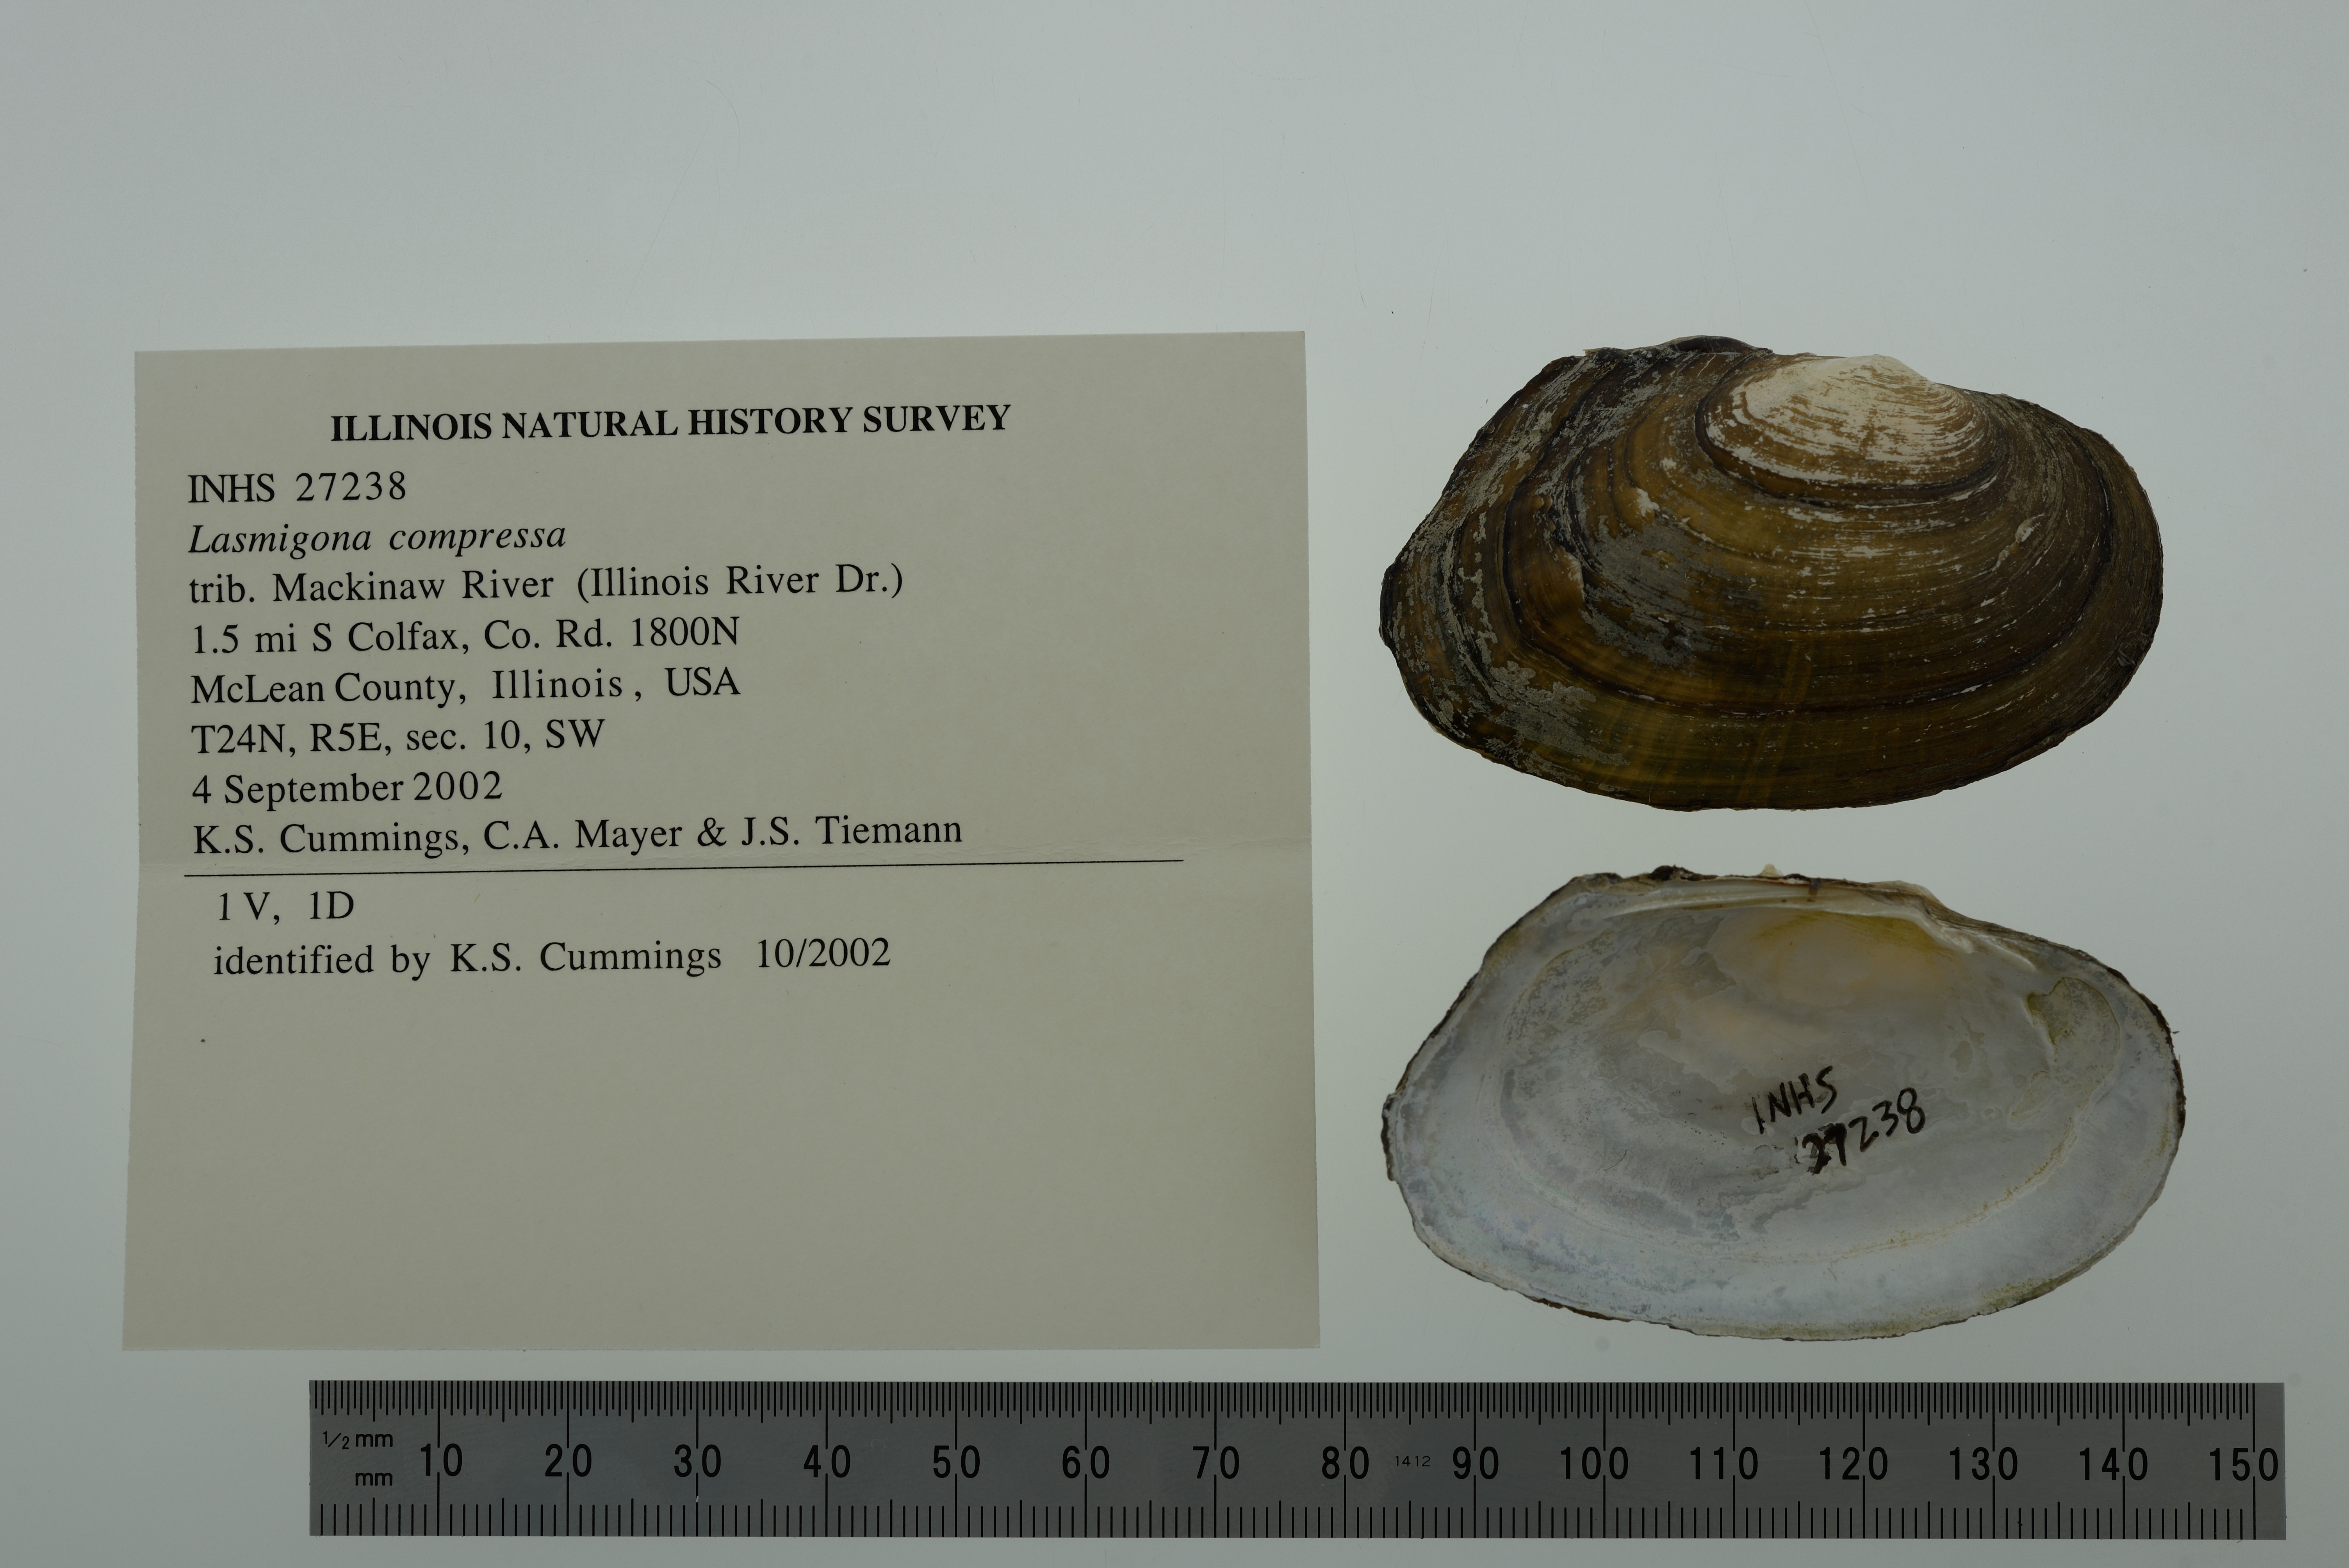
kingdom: Animalia
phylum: Mollusca
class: Bivalvia
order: Unionida
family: Unionidae
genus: Lasmigona
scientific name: Lasmigona compressa
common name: Creek heelsplitter
